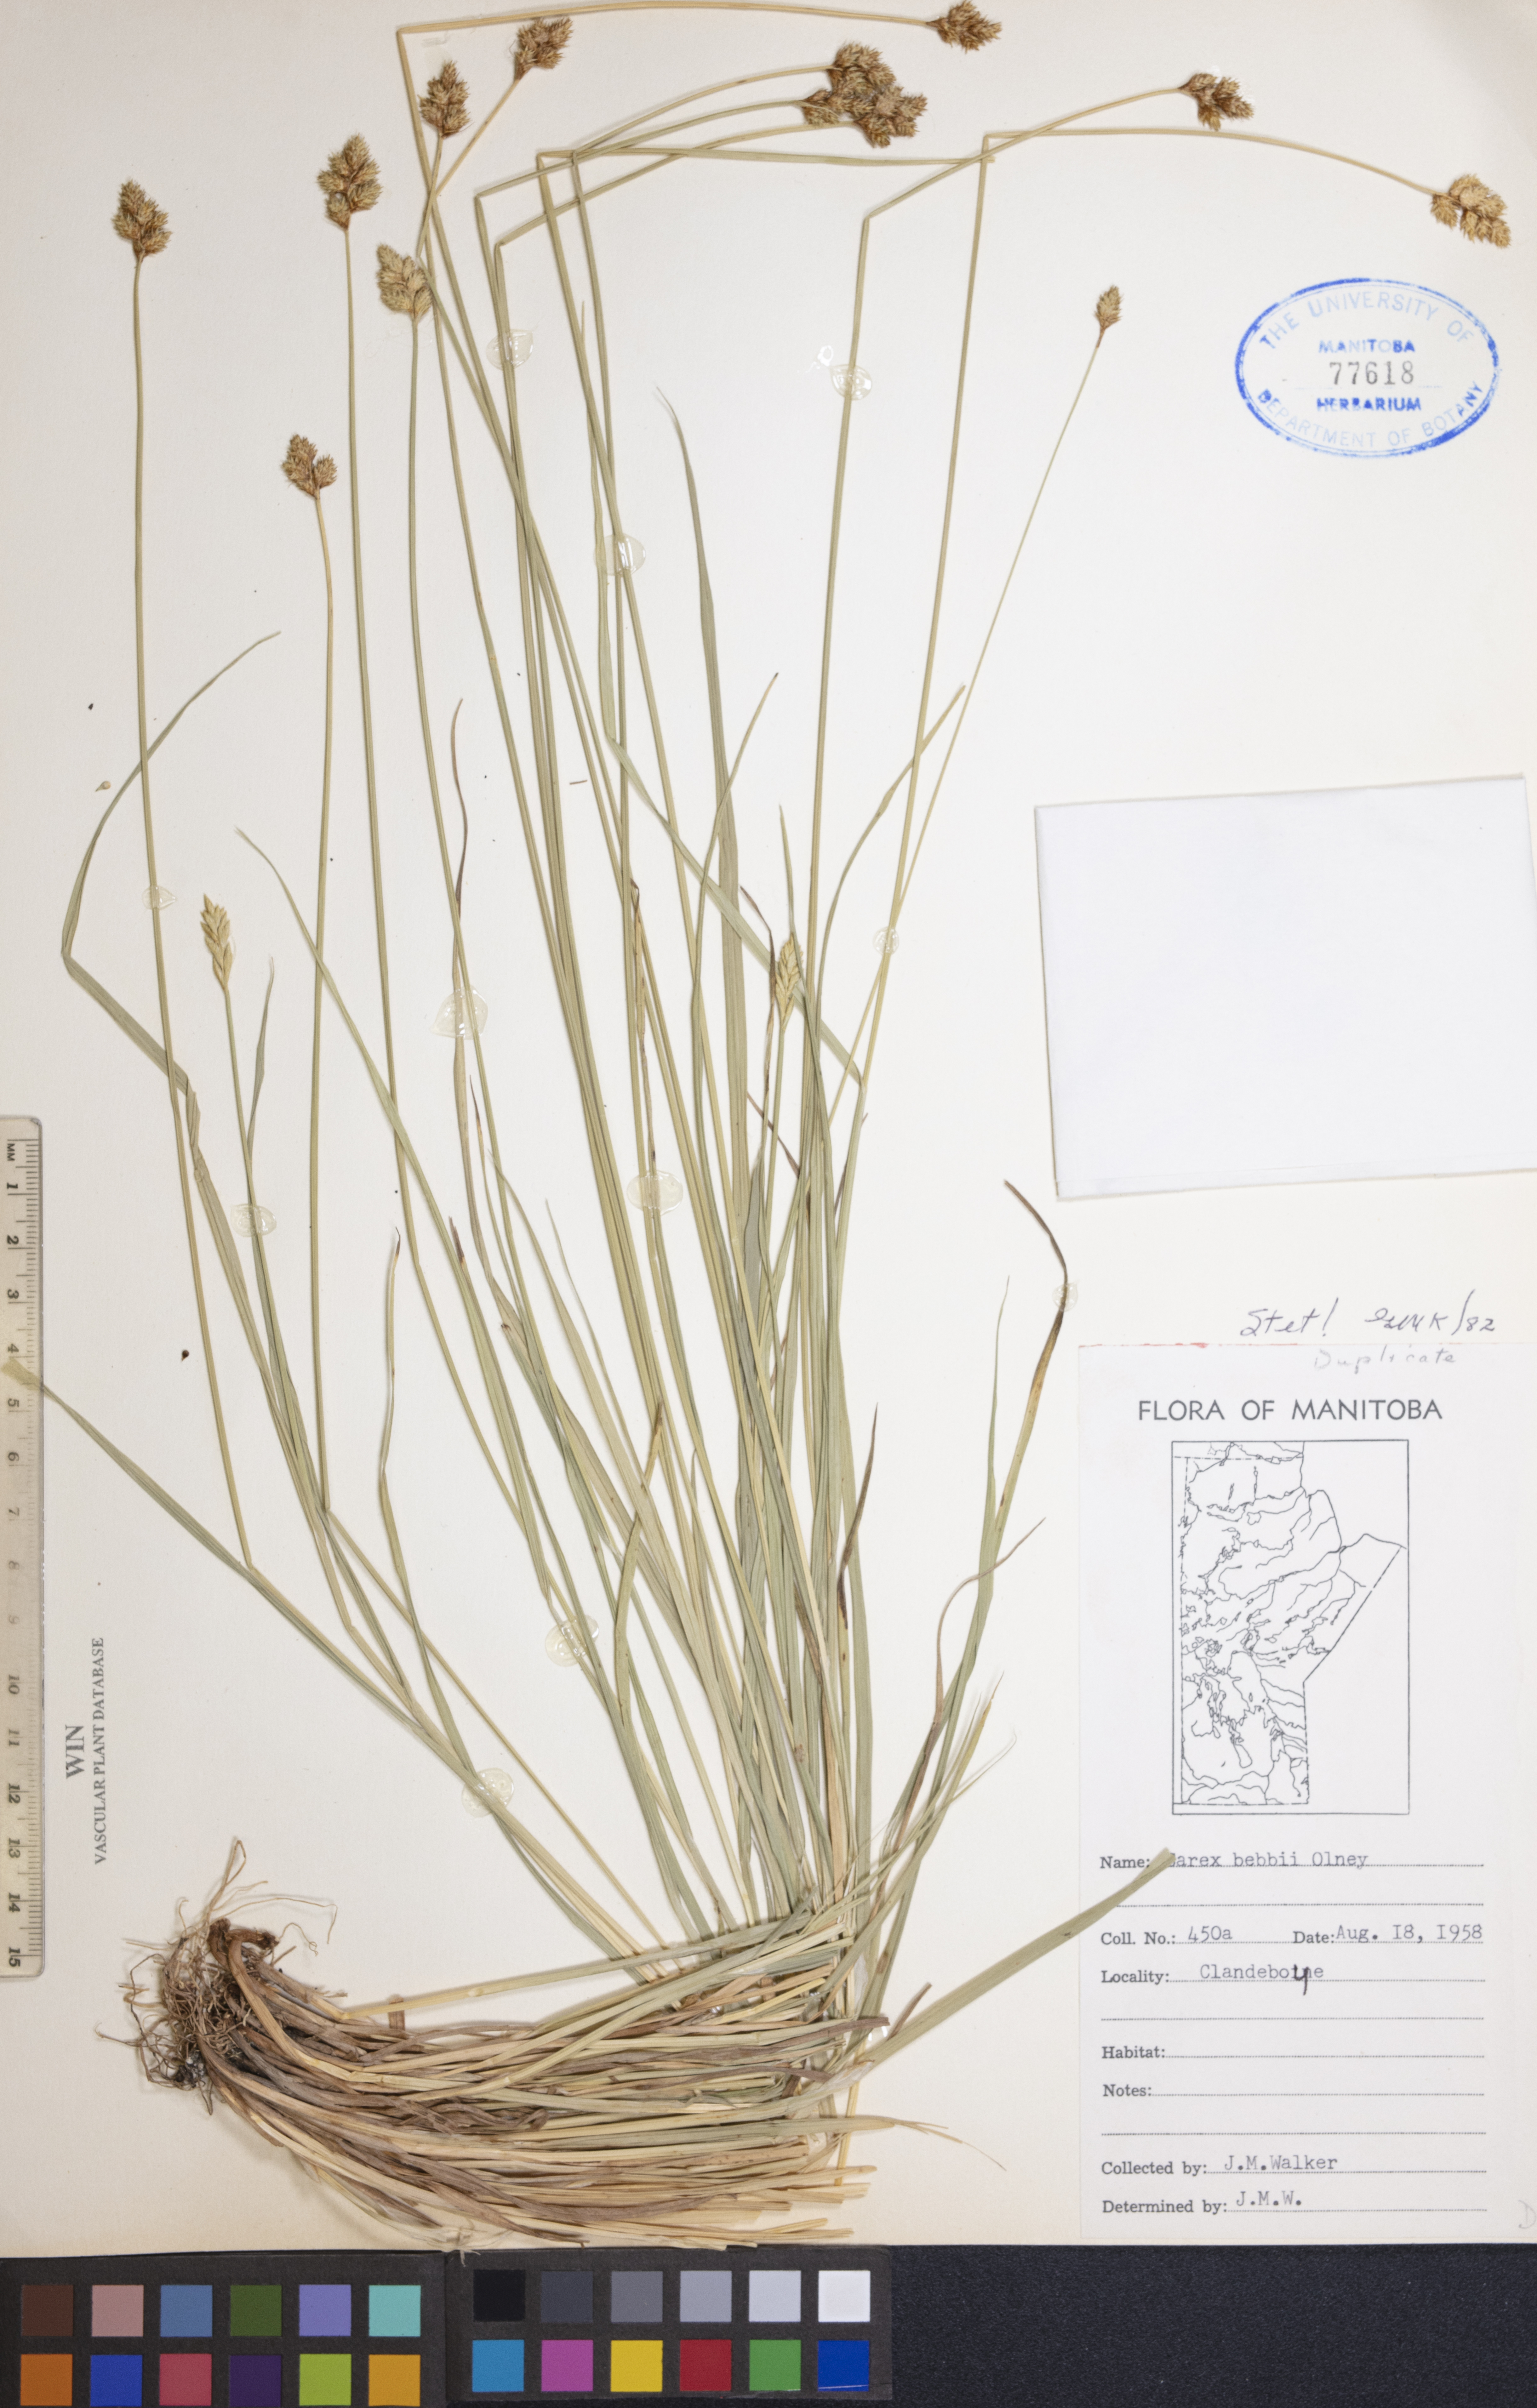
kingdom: Plantae
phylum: Tracheophyta
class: Liliopsida
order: Poales
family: Cyperaceae
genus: Carex
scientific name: Carex bebbii
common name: Bebb's sedge
